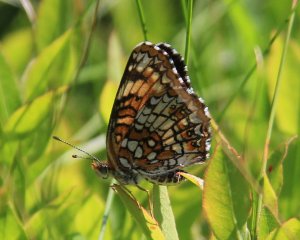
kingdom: Animalia
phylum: Arthropoda
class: Insecta
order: Lepidoptera
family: Nymphalidae
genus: Chlosyne
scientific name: Chlosyne harrisii
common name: Harris's Checkerspot
